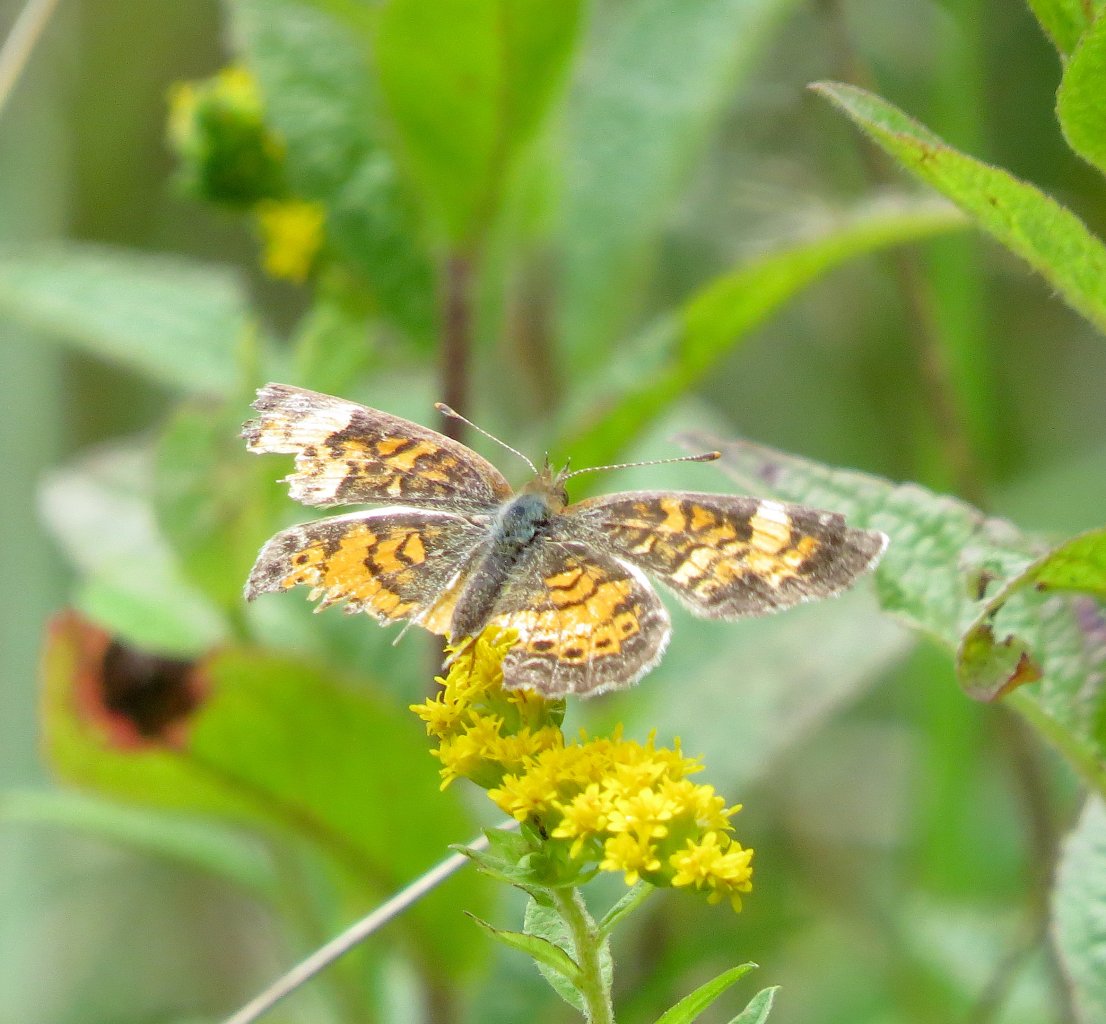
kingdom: Animalia
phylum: Arthropoda
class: Insecta
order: Lepidoptera
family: Nymphalidae
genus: Phyciodes
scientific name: Phyciodes tharos
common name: Pearl Crescent
